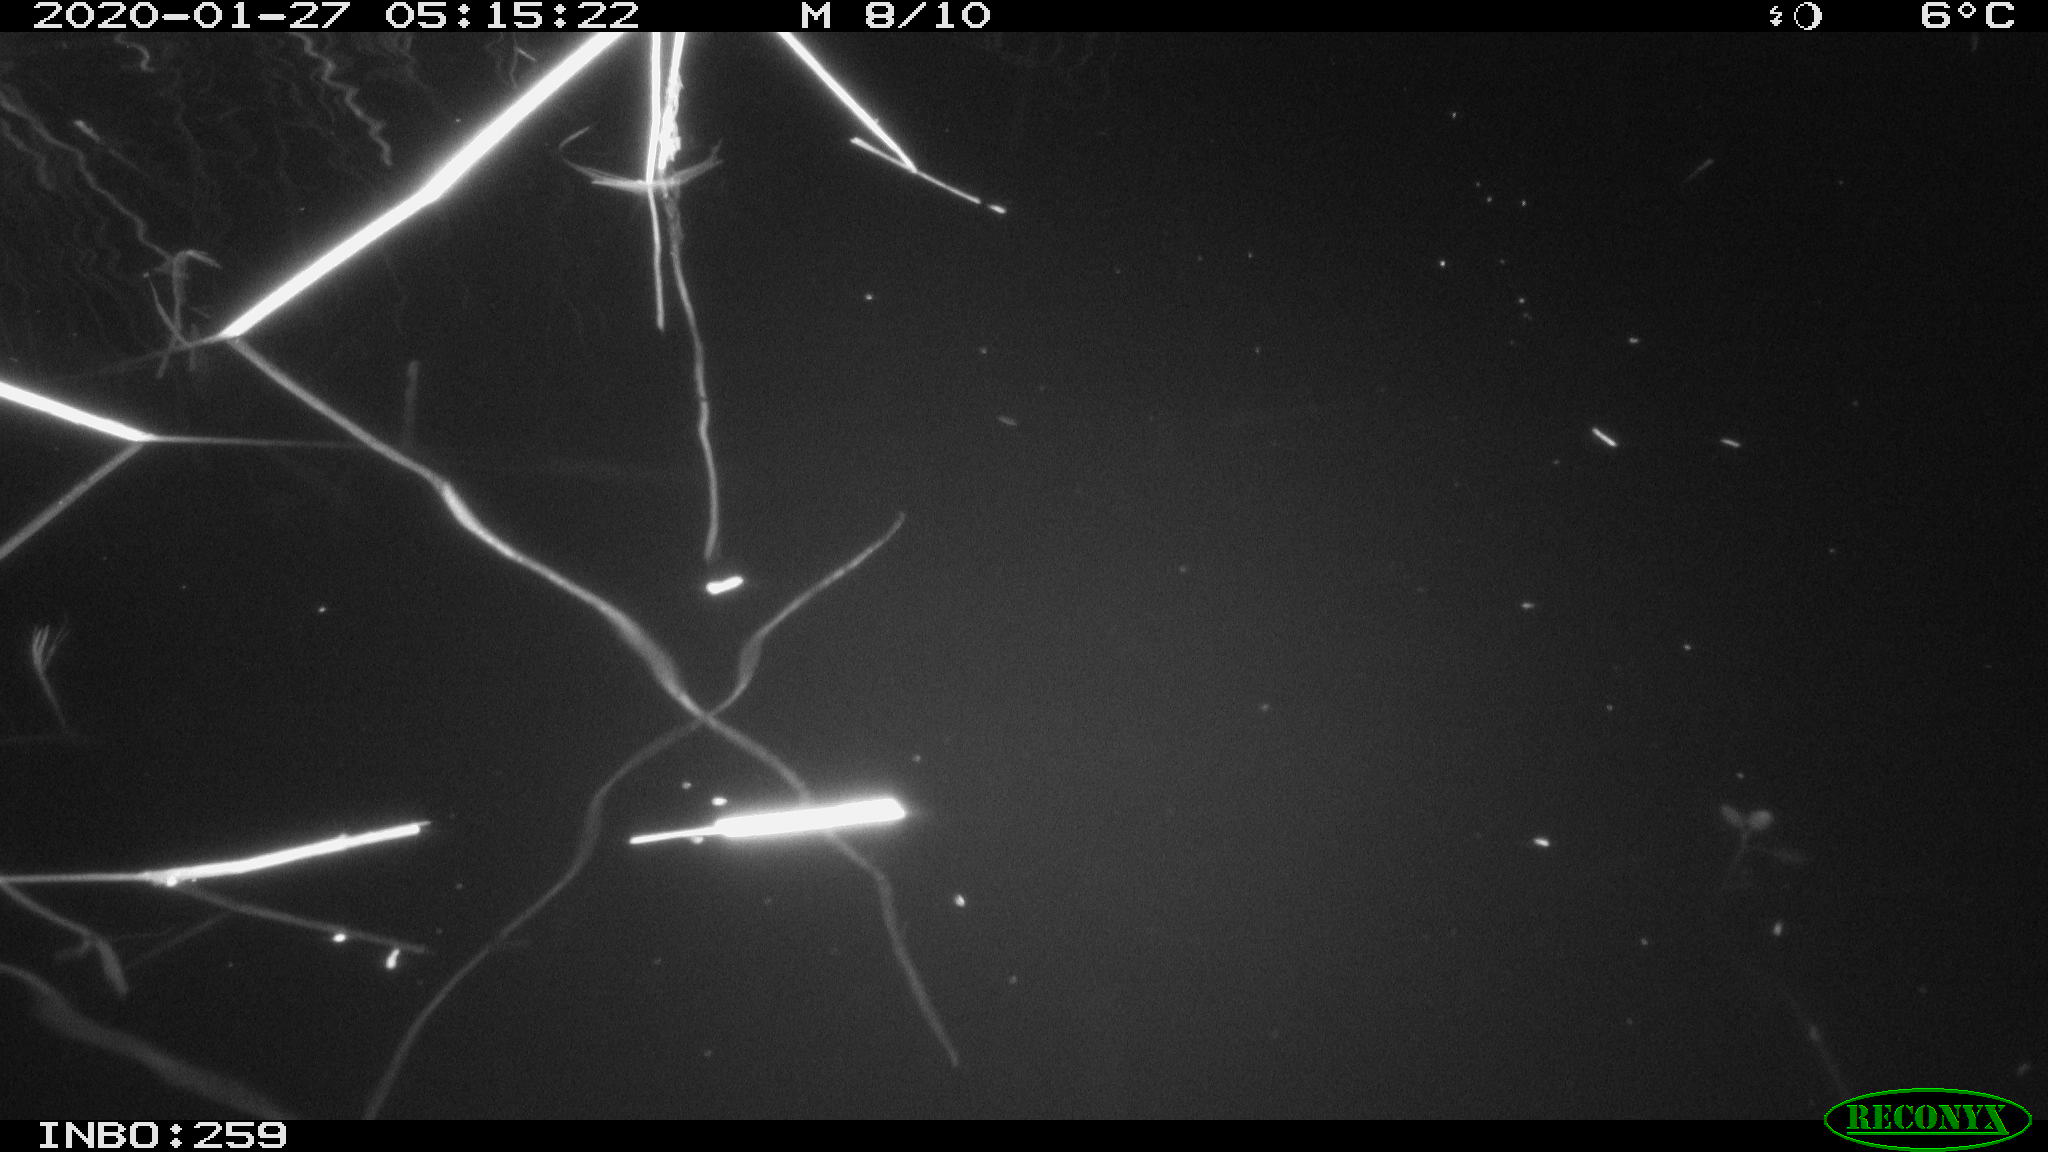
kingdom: Animalia
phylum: Chordata
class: Mammalia
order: Rodentia
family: Cricetidae
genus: Ondatra
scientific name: Ondatra zibethicus
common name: Muskrat
